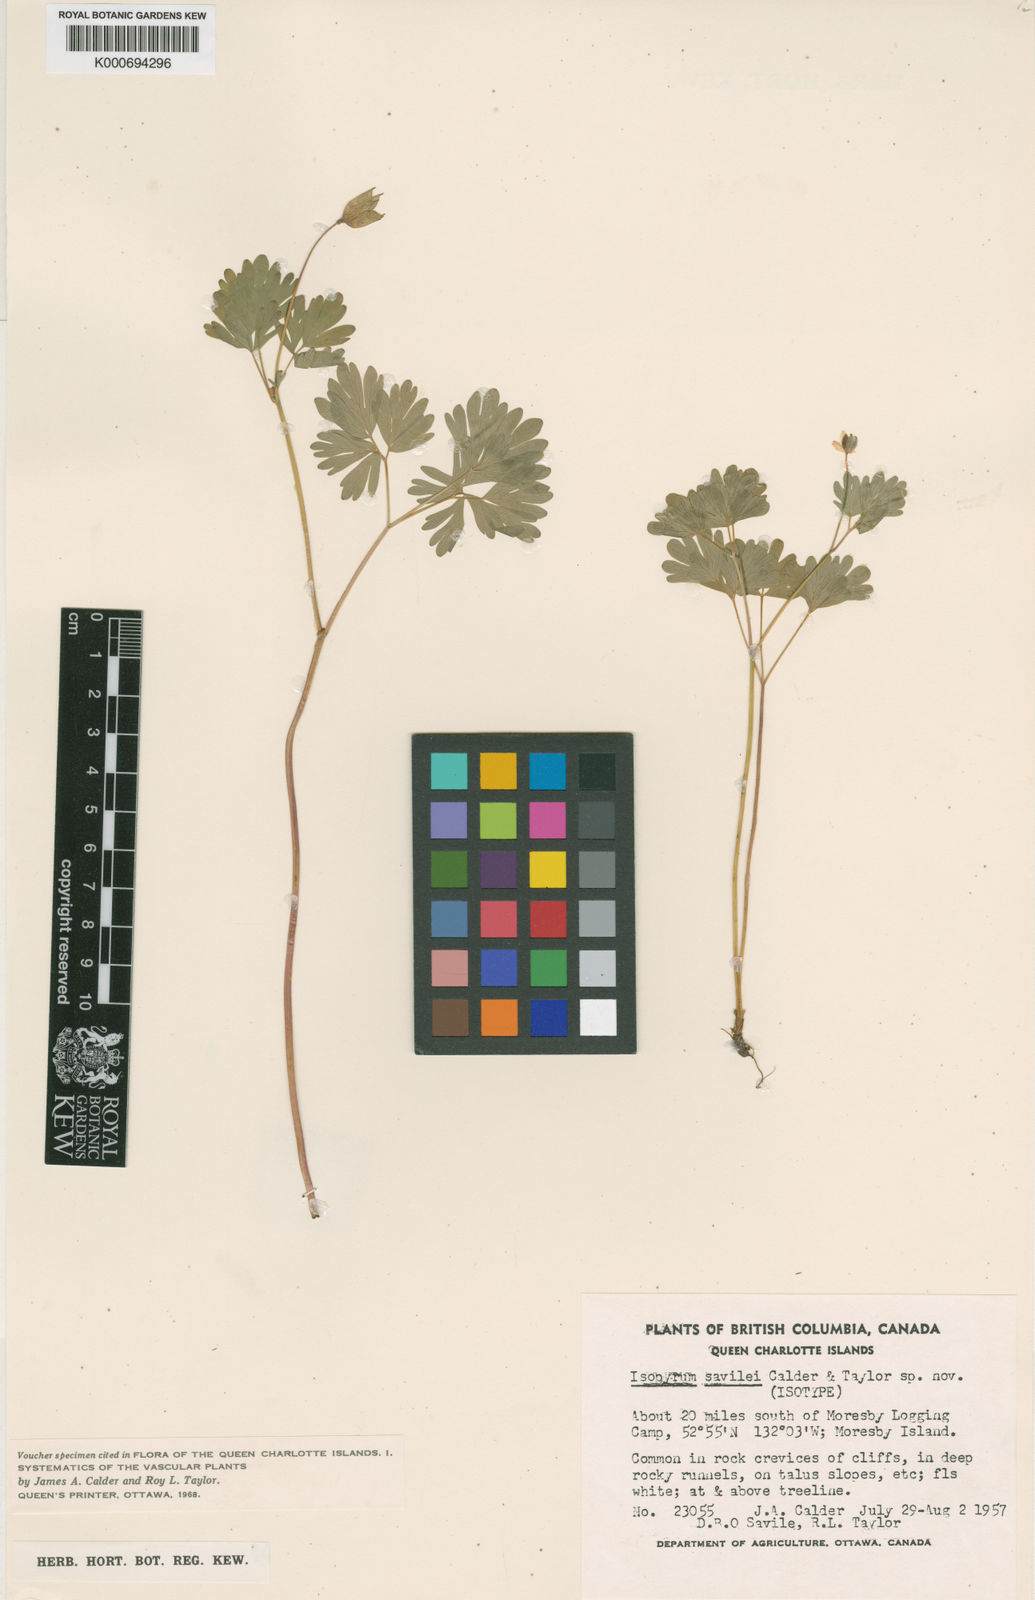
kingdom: Plantae
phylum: Tracheophyta
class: Magnoliopsida
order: Ranunculales
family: Ranunculaceae
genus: Enemion
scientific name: Enemion savilei
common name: Haida gwaii false rue-anemone
